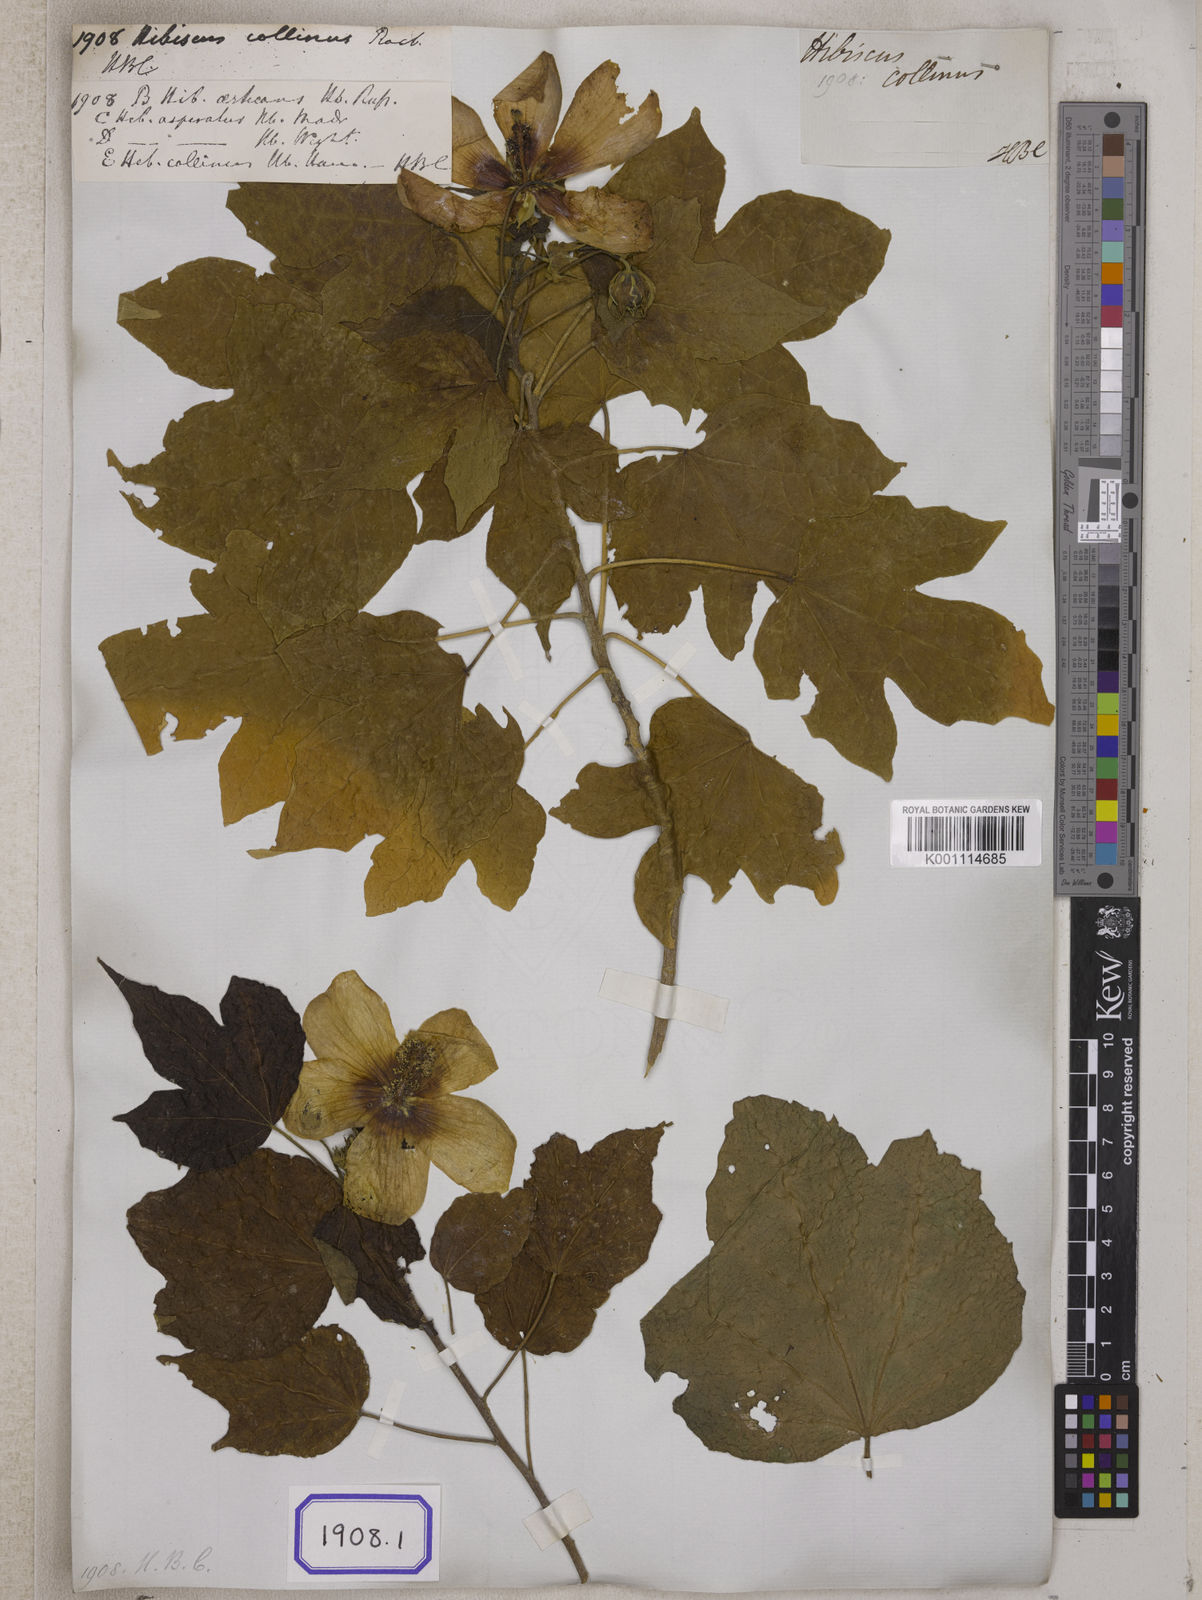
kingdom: Plantae
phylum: Tracheophyta
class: Magnoliopsida
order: Malvales
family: Malvaceae
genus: Hibiscus
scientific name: Hibiscus
